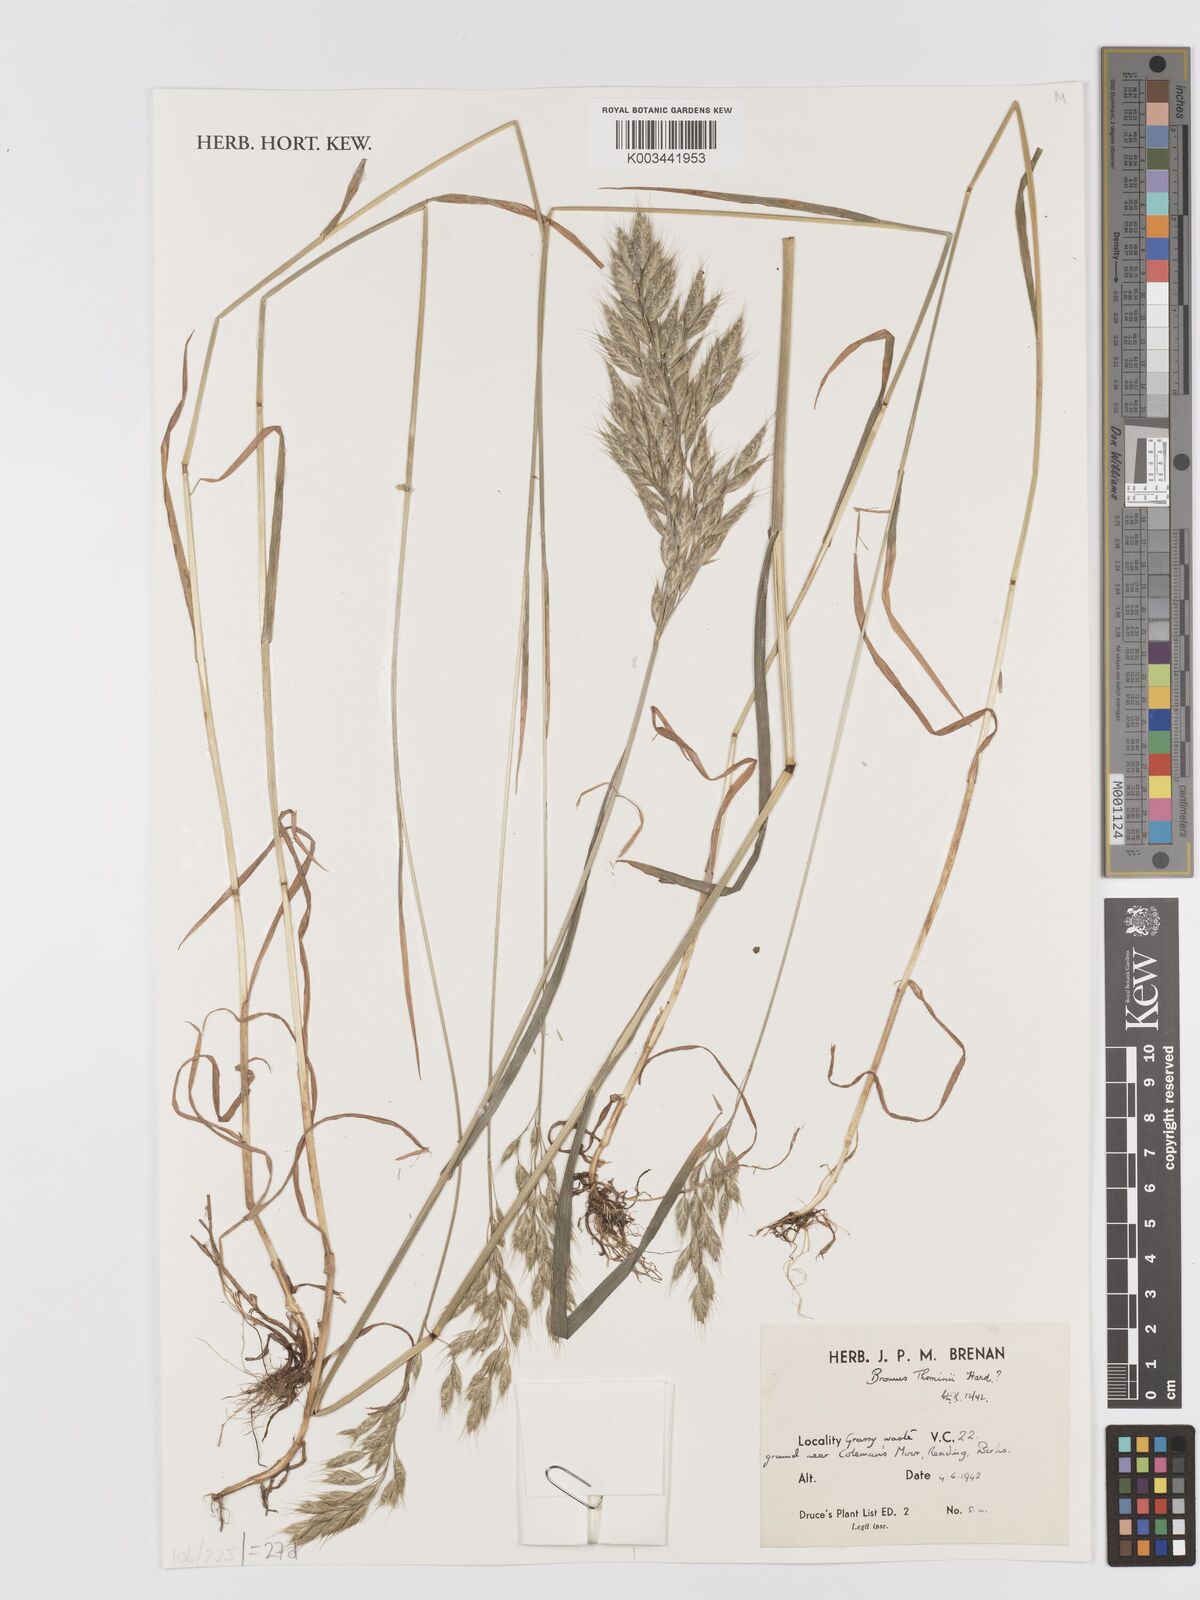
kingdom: Plantae
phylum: Tracheophyta
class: Liliopsida
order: Poales
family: Poaceae
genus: Bromus
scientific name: Bromus hordeaceus
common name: Soft brome
